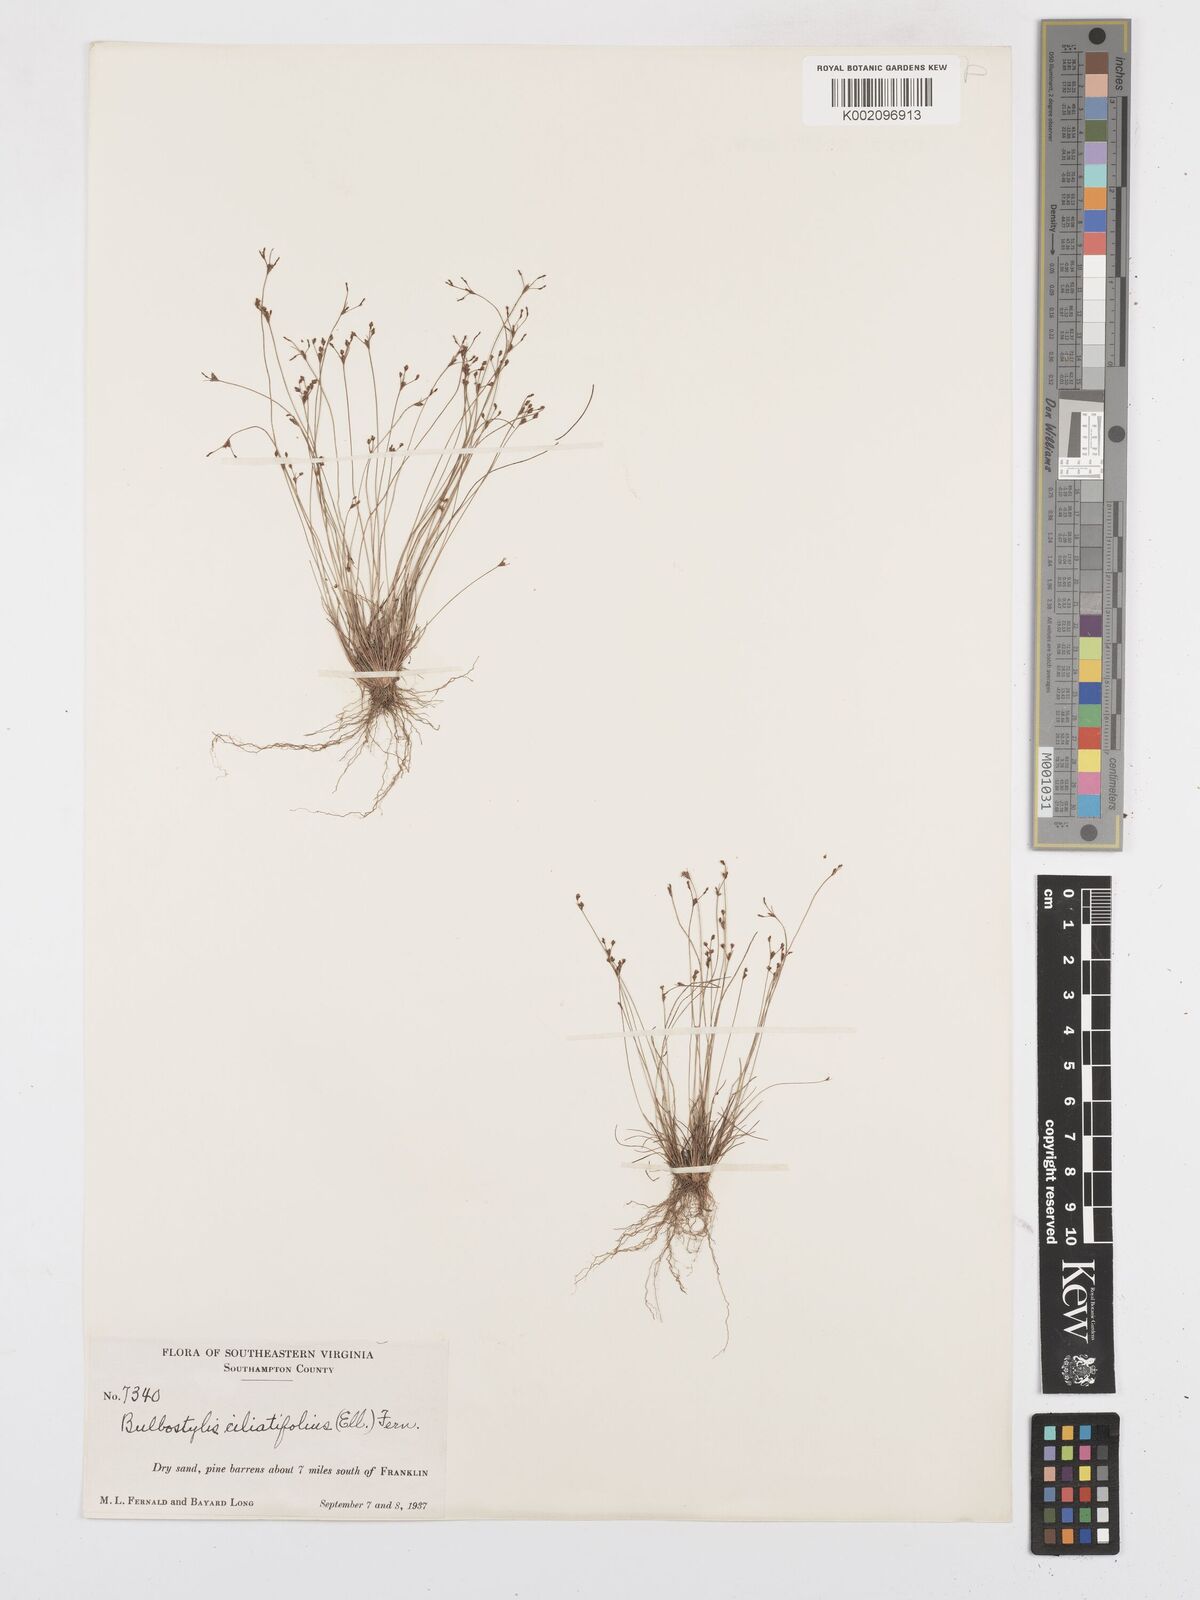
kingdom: Plantae
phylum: Tracheophyta
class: Liliopsida
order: Poales
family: Cyperaceae
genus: Bulbostylis
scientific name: Bulbostylis ciliatifolia
